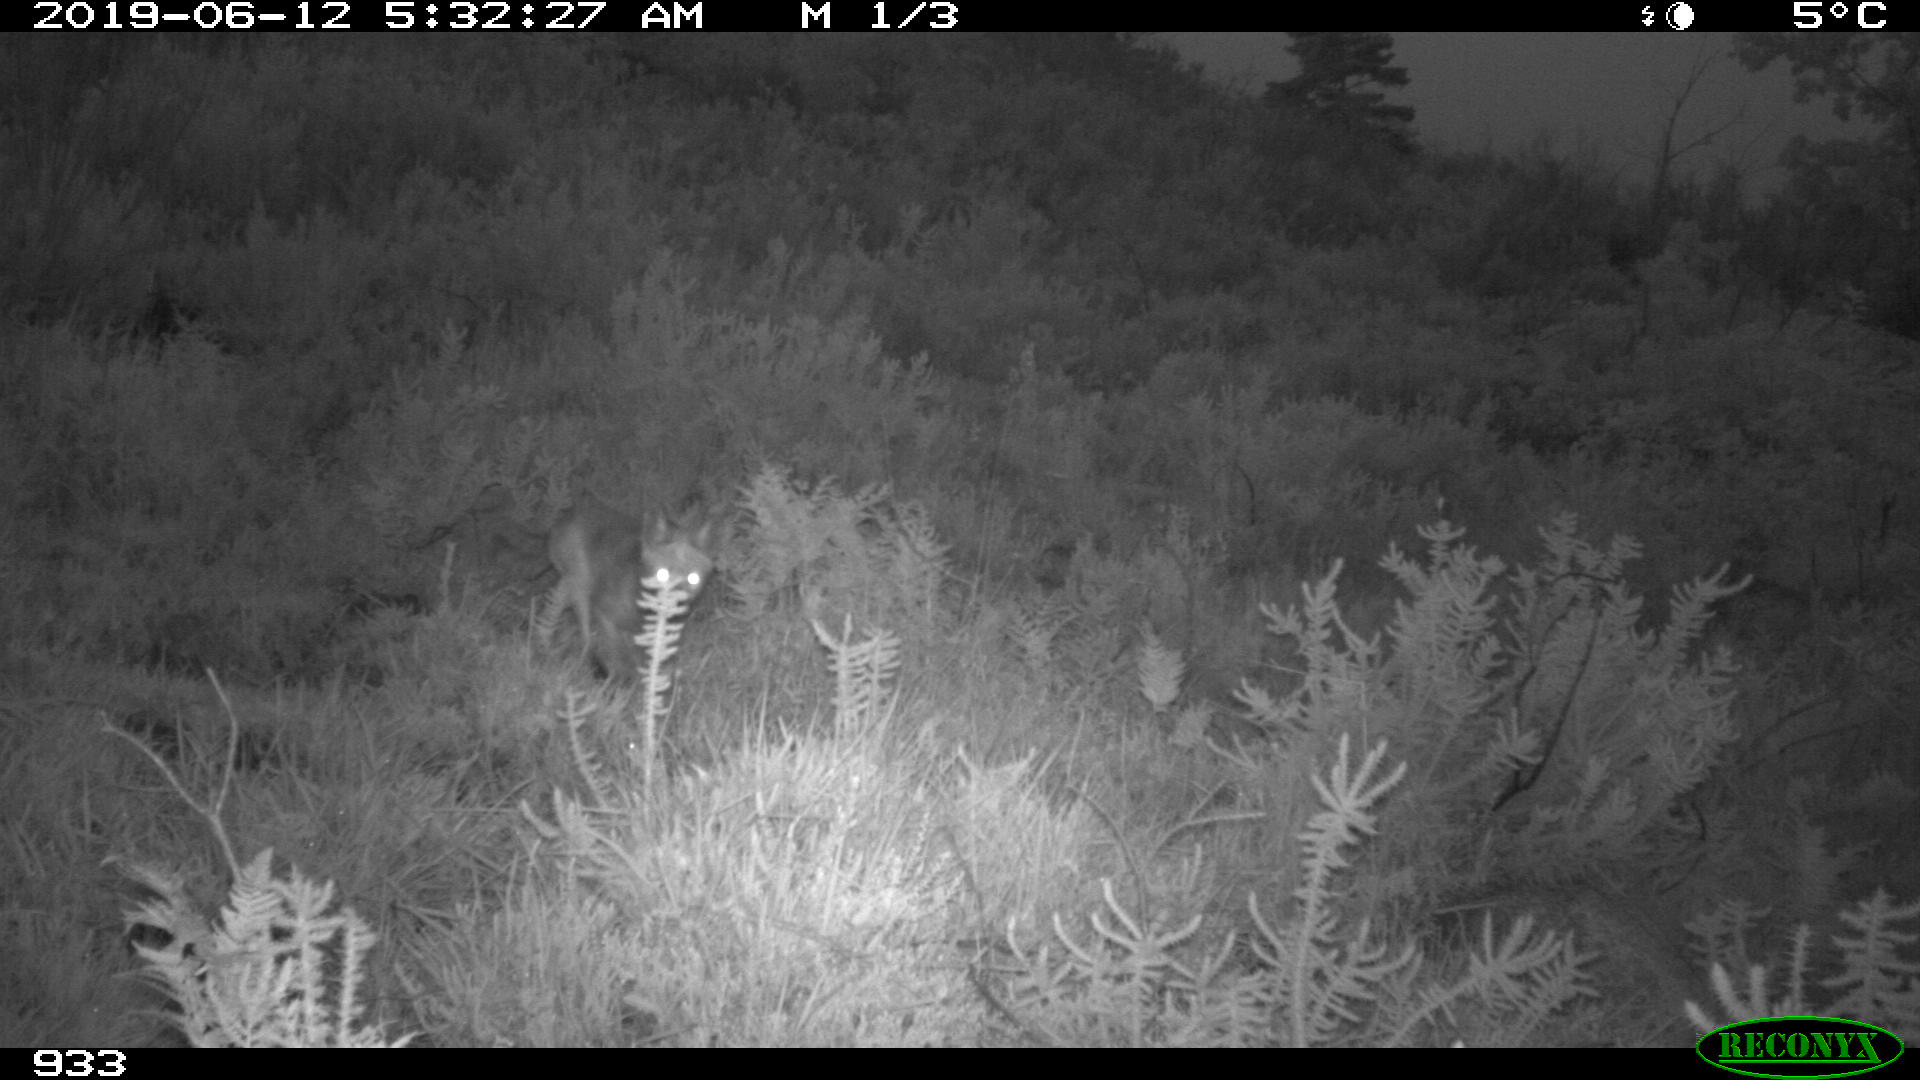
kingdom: Animalia
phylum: Chordata
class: Mammalia
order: Carnivora
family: Canidae
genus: Vulpes
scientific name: Vulpes vulpes
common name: Red fox
